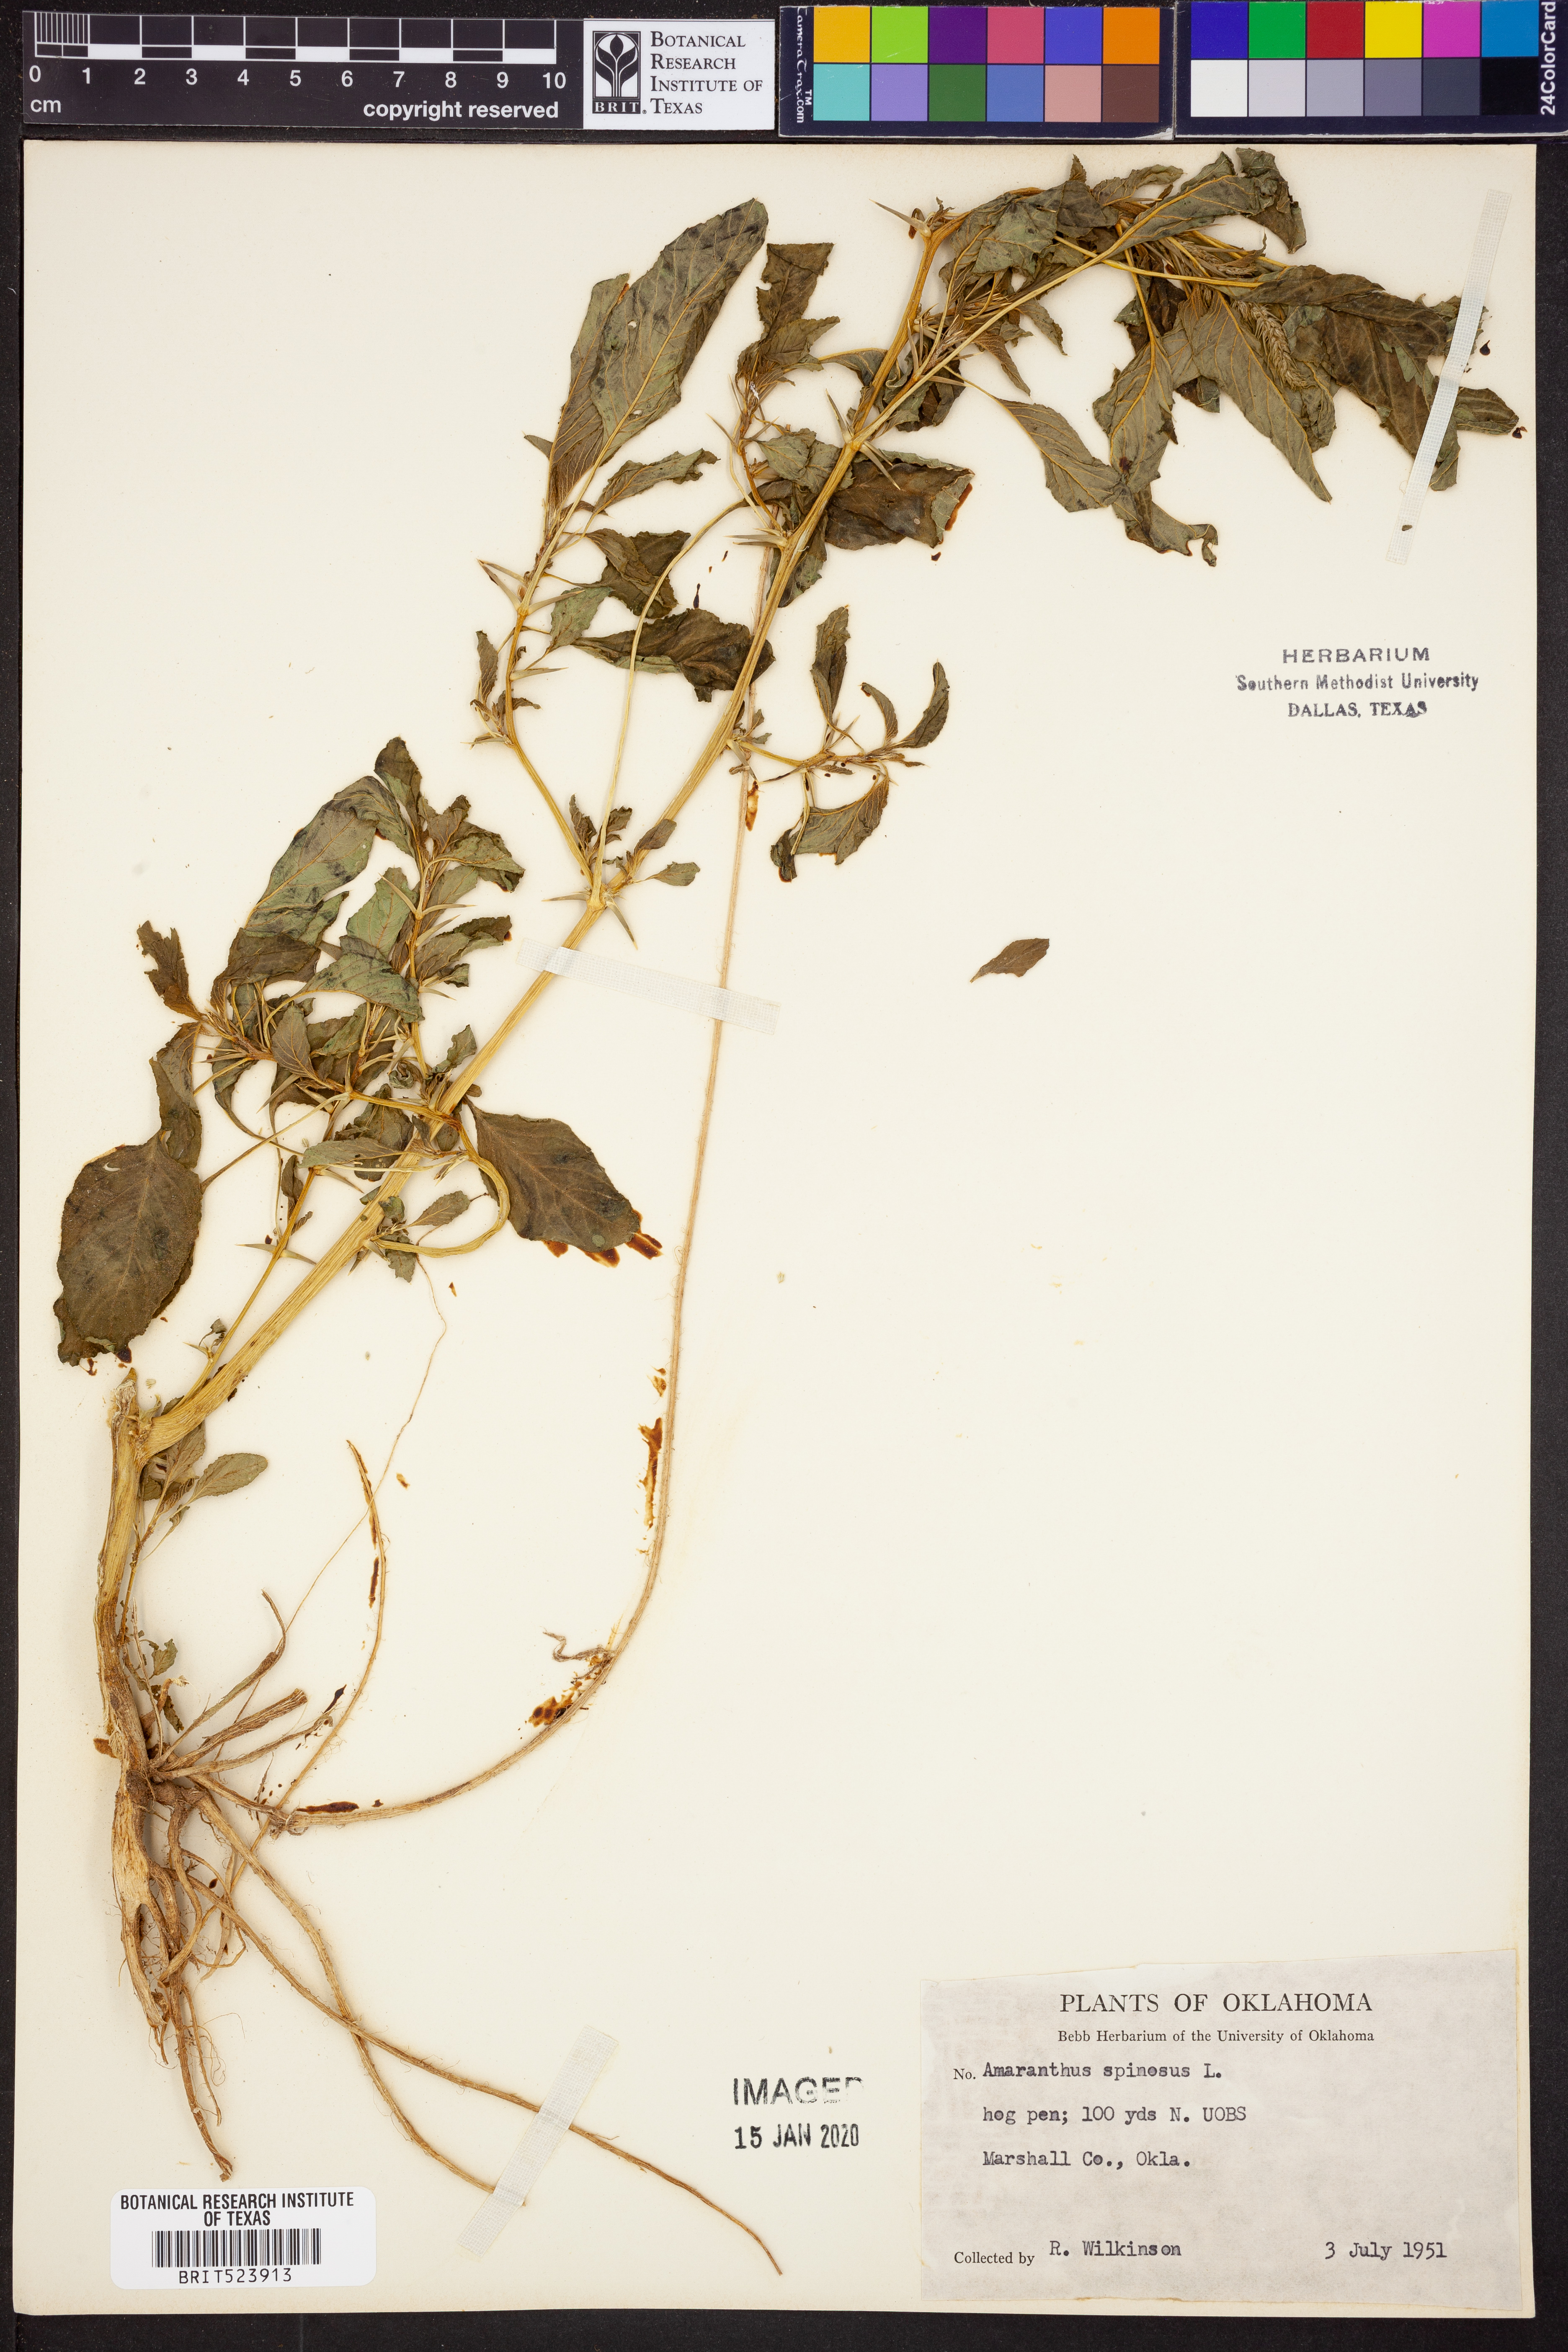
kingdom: Plantae
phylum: Tracheophyta
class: Magnoliopsida
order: Caryophyllales
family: Amaranthaceae
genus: Amaranthus
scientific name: Amaranthus spinosus
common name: Spiny amaranth
